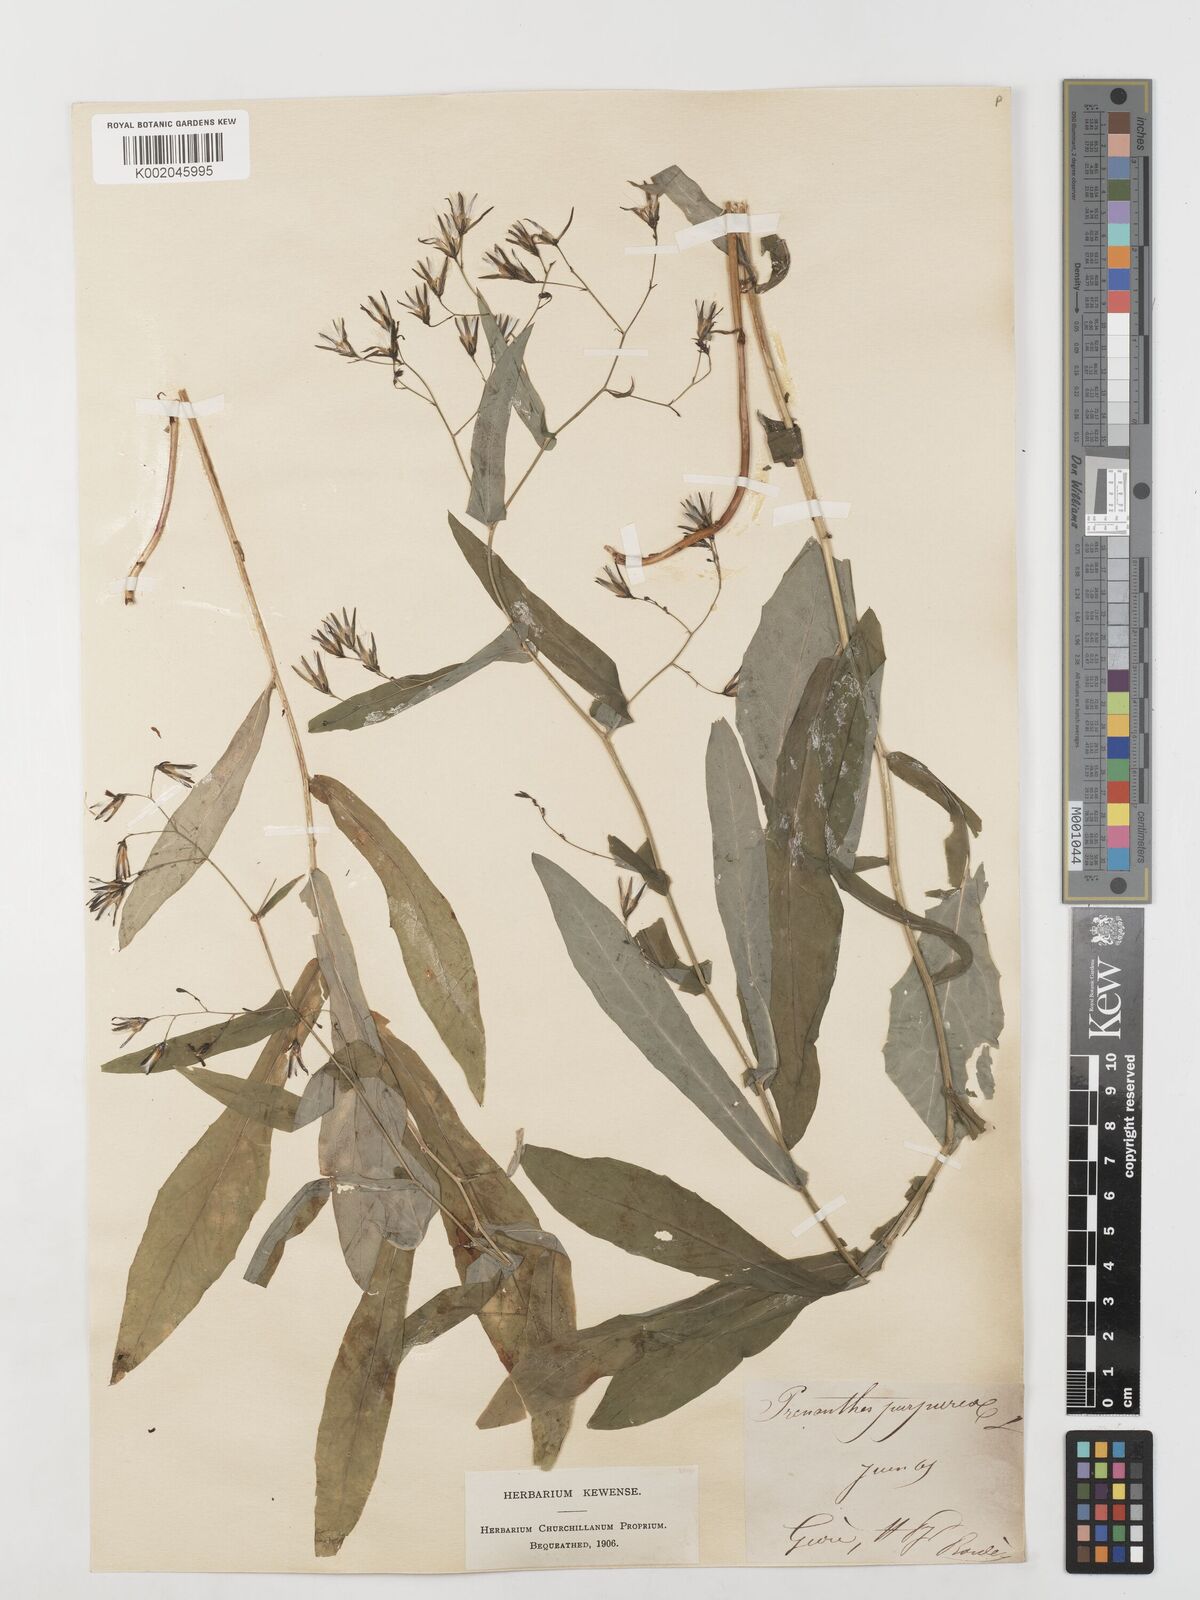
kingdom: Plantae
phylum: Tracheophyta
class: Magnoliopsida
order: Asterales
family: Asteraceae
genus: Prenanthes
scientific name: Prenanthes purpurea
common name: Purple lettuce
